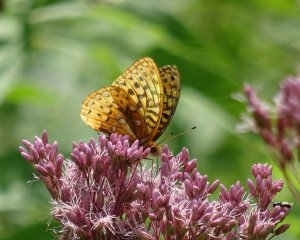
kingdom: Animalia
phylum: Arthropoda
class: Insecta
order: Lepidoptera
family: Nymphalidae
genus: Speyeria
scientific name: Speyeria cybele
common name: Great Spangled Fritillary
